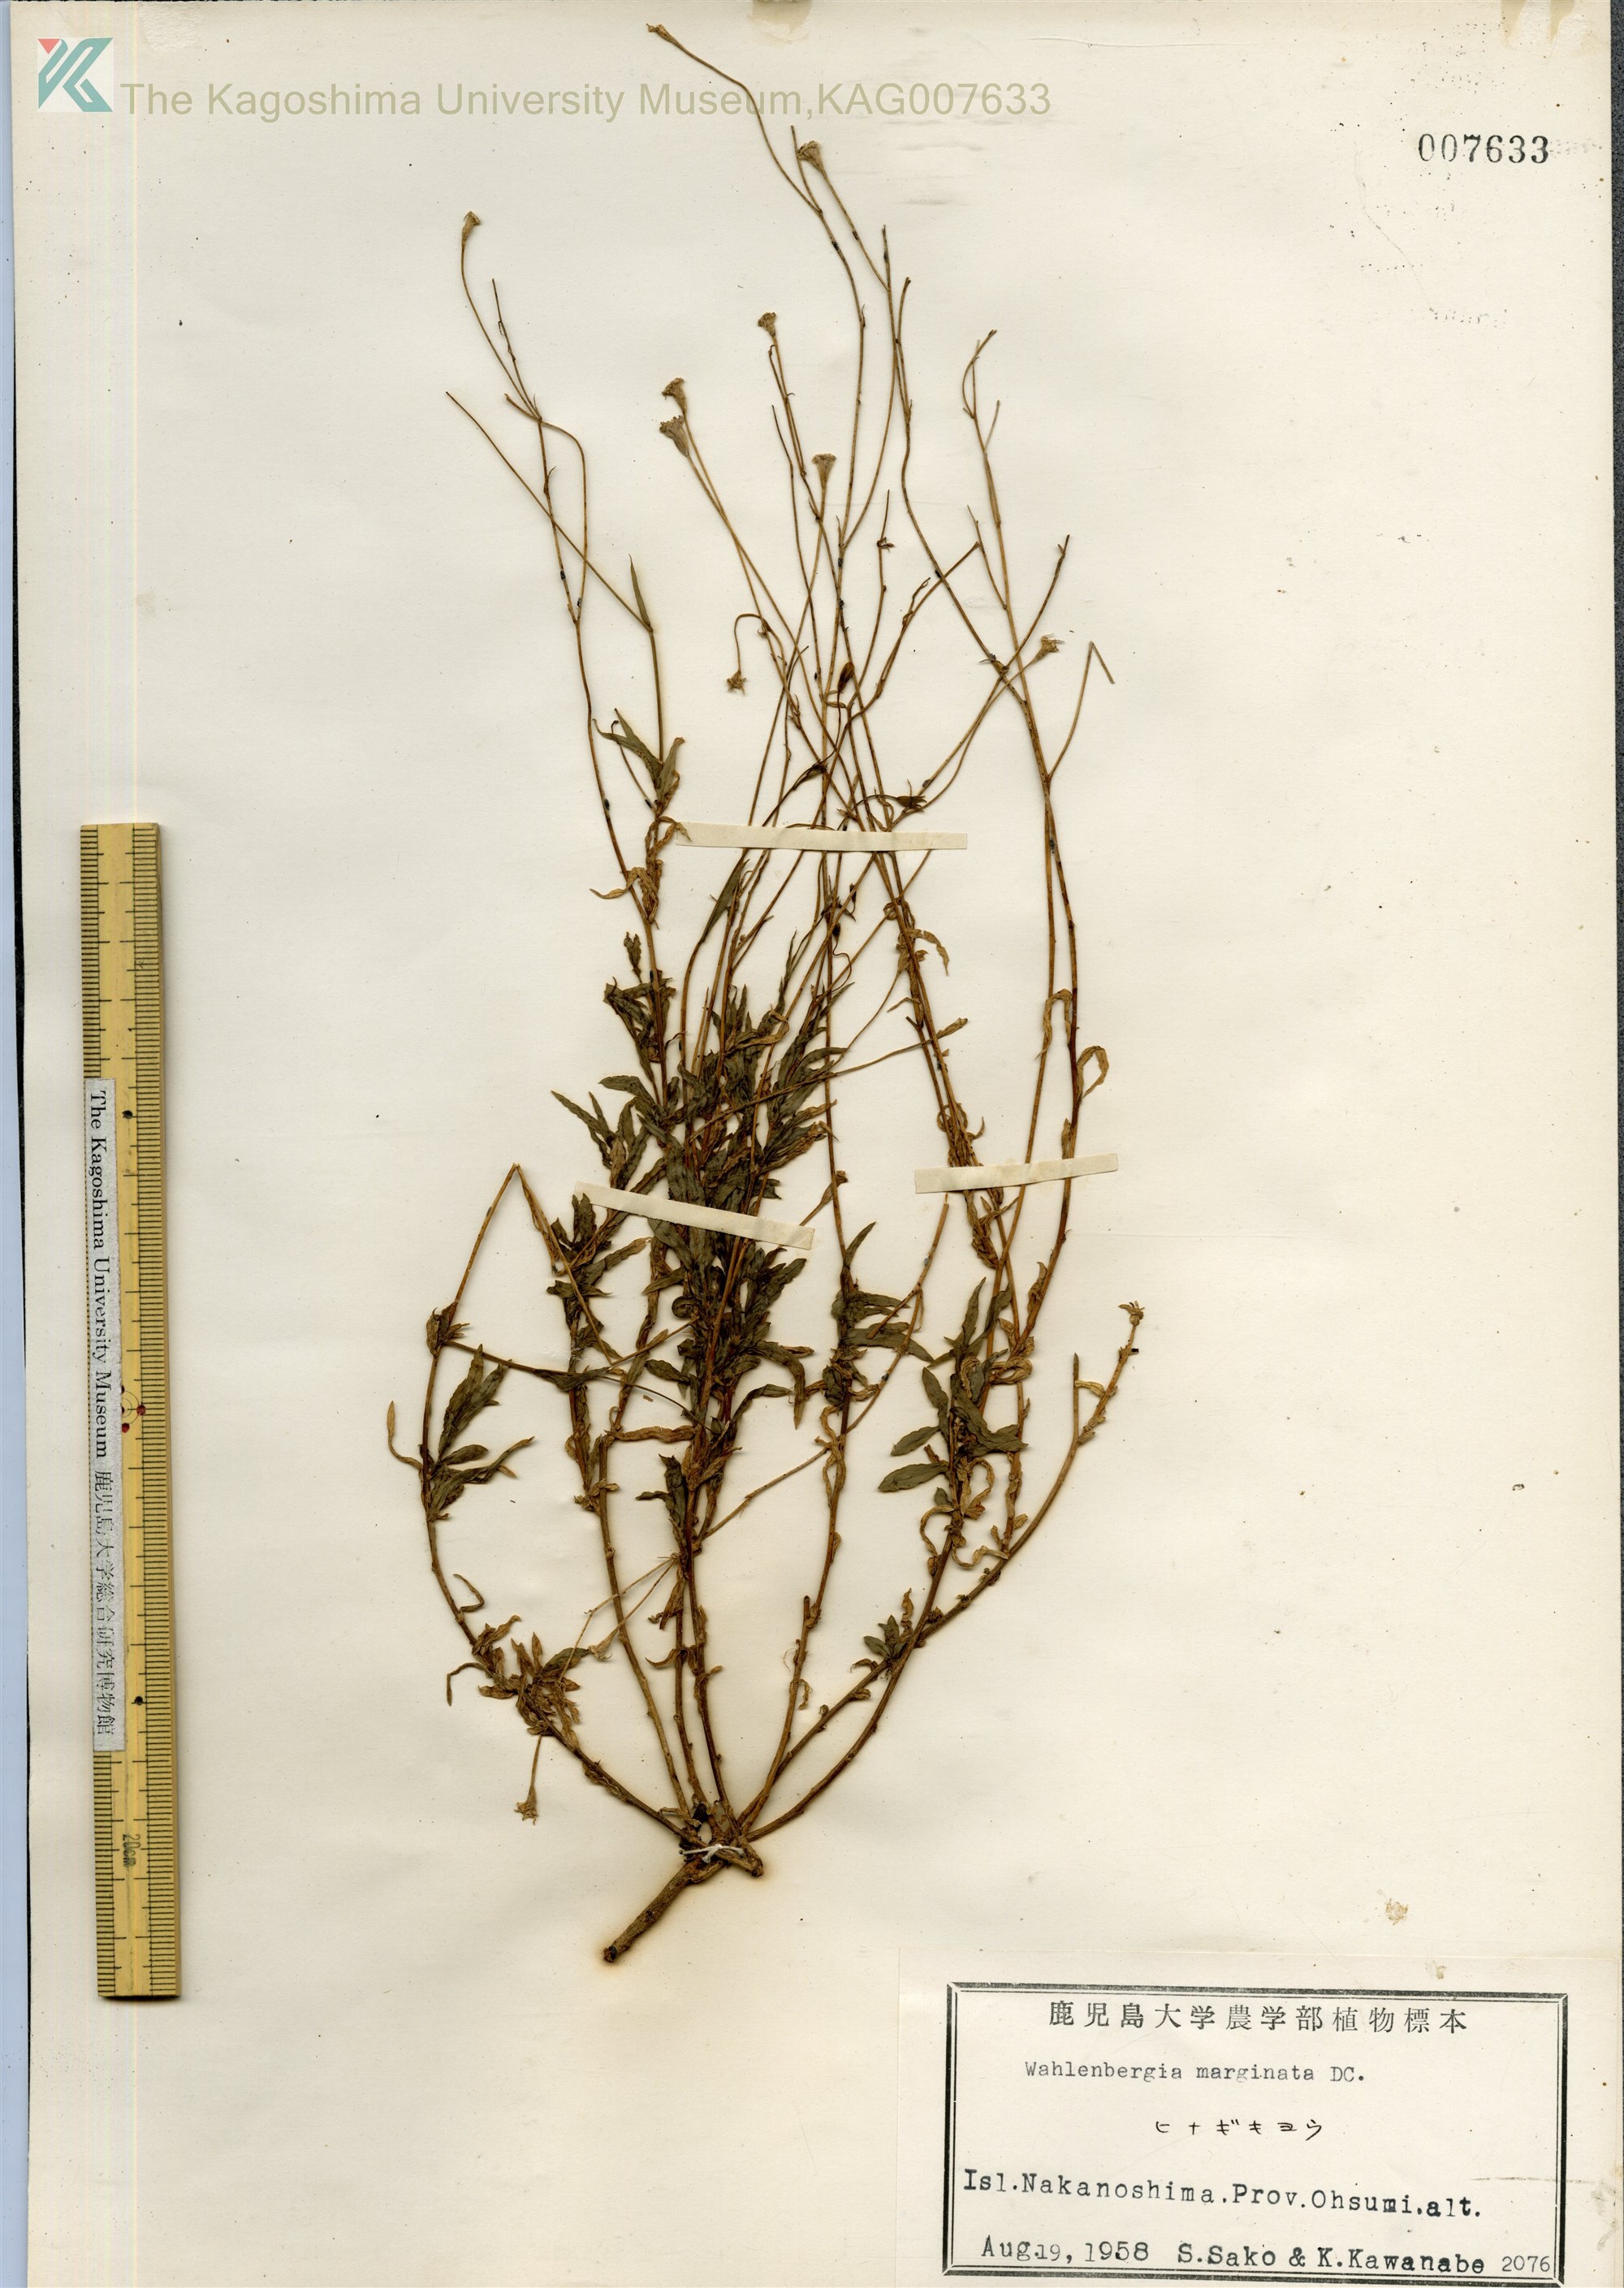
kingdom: Plantae
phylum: Tracheophyta
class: Magnoliopsida
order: Asterales
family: Campanulaceae
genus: Wahlenbergia
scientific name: Wahlenbergia marginata
